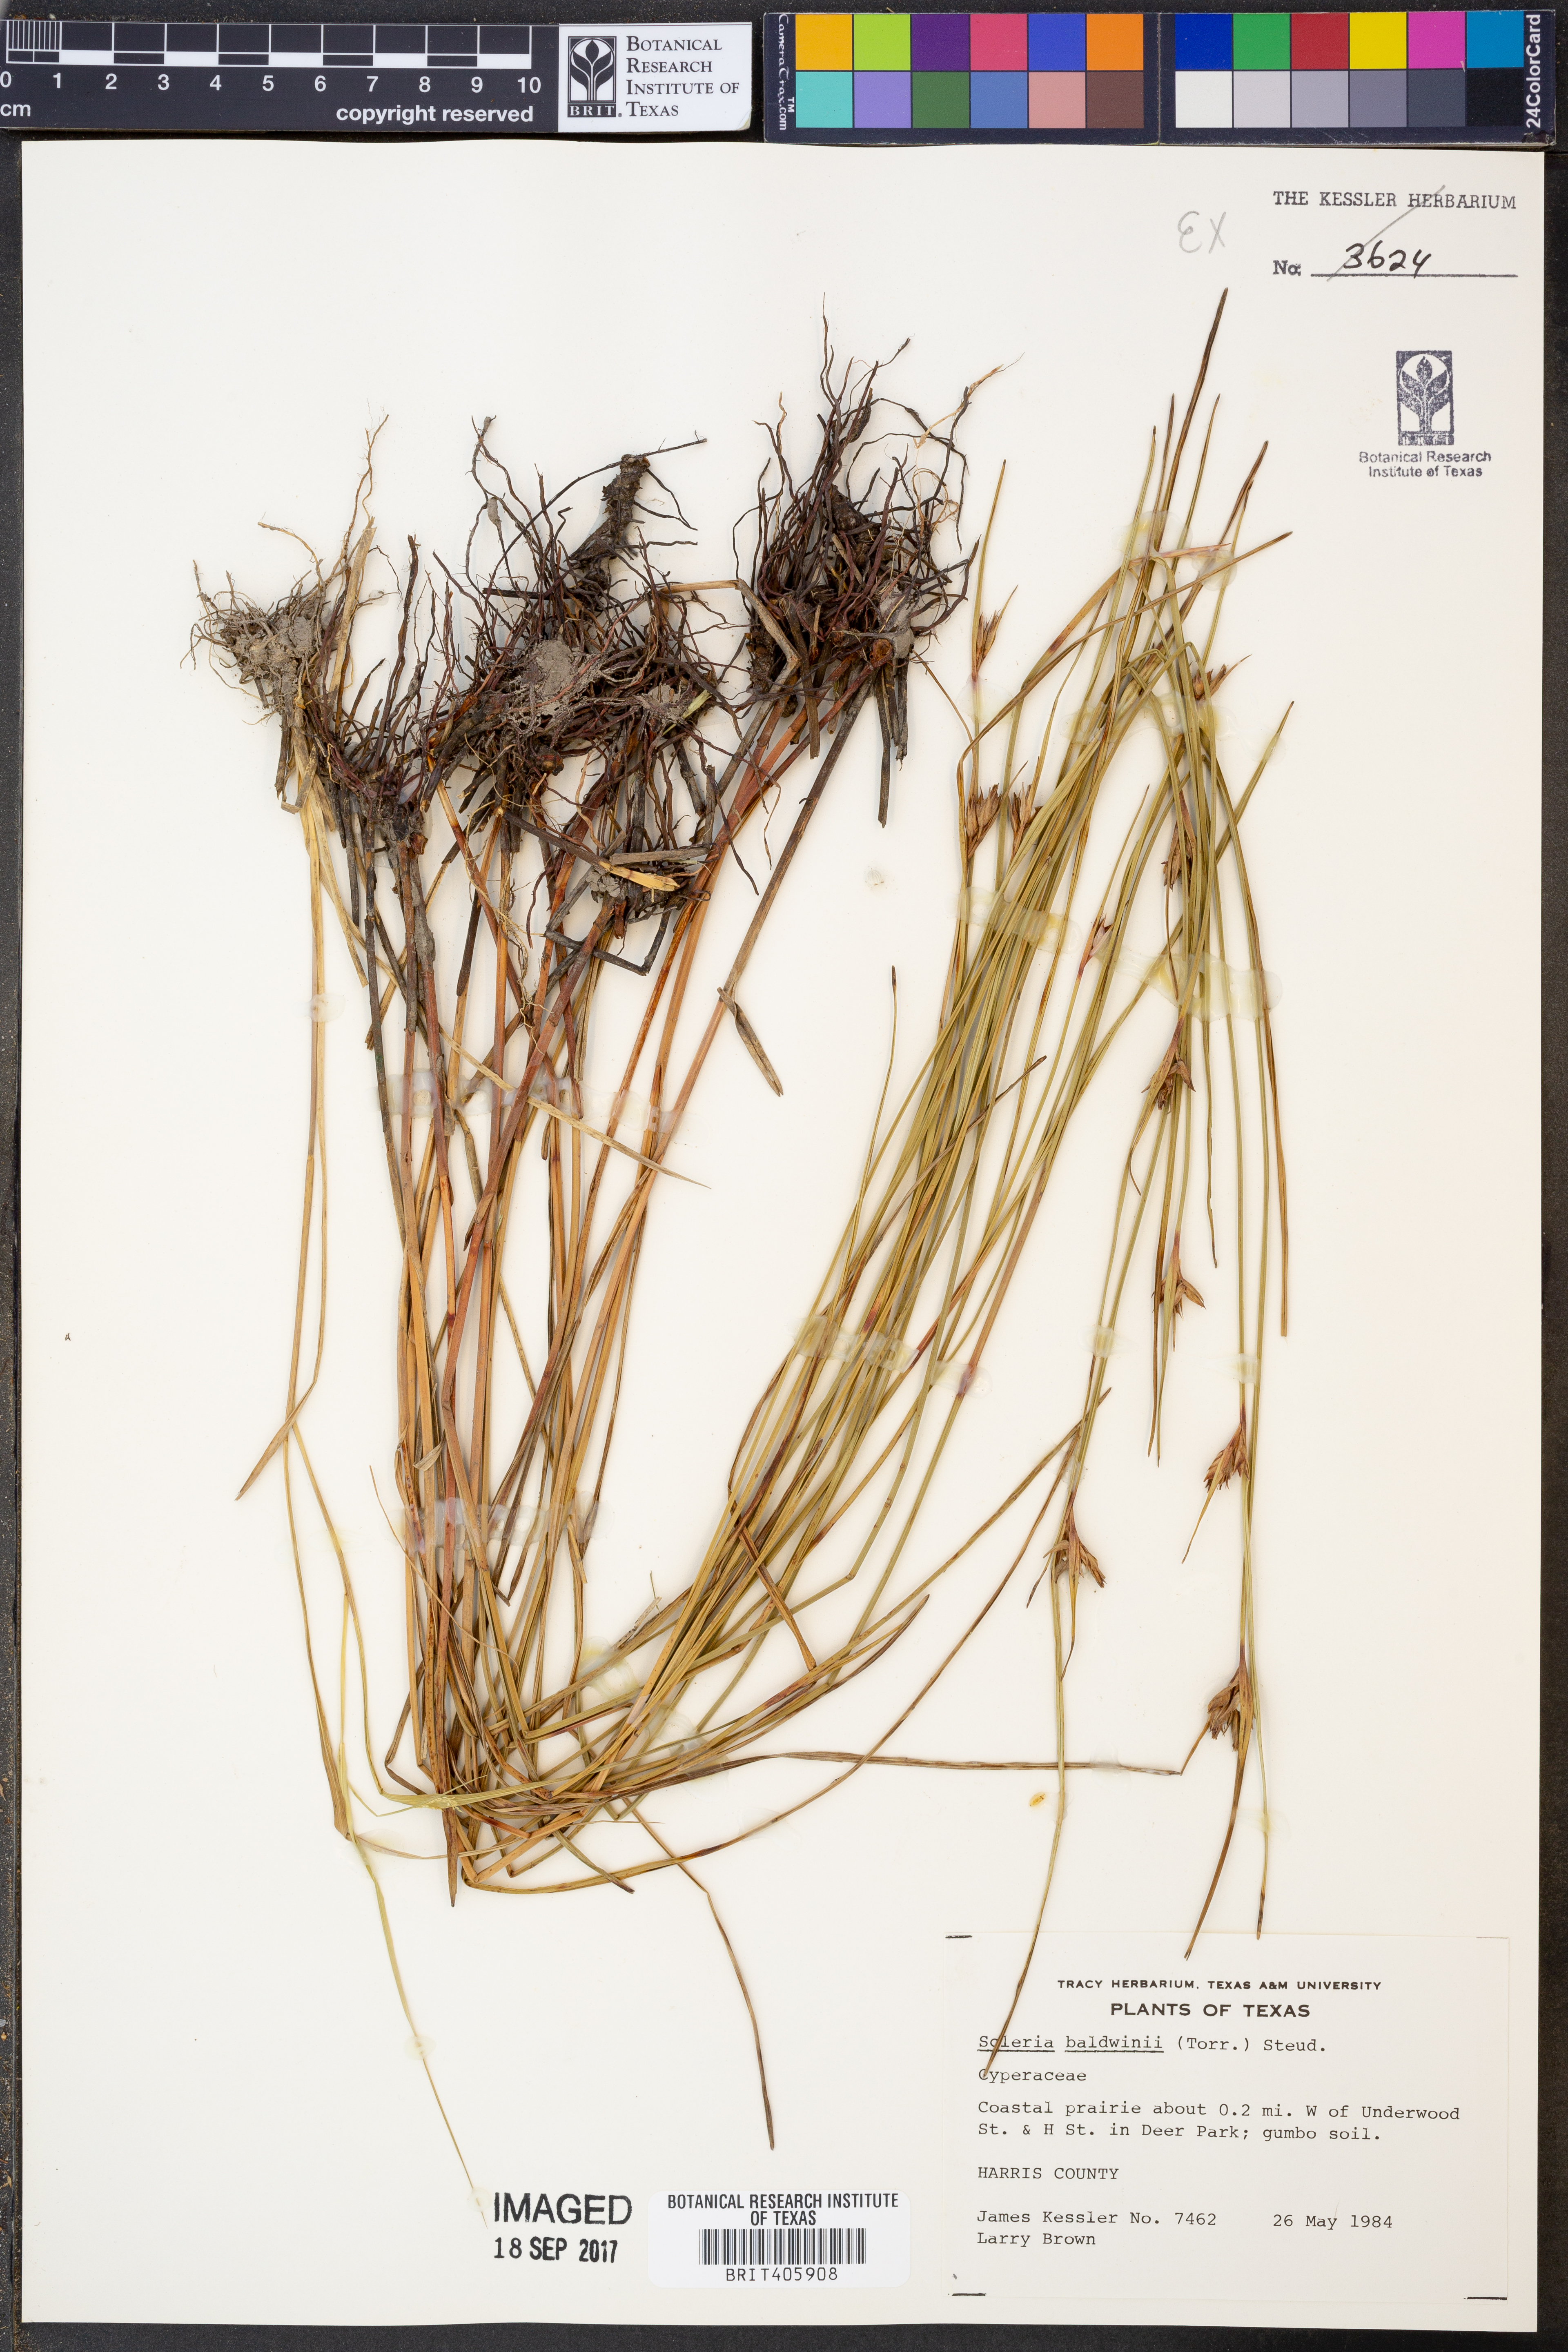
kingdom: Plantae
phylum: Tracheophyta
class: Liliopsida
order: Poales
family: Cyperaceae
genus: Scleria
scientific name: Scleria baldwinii
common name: Baldwin's nutrush
